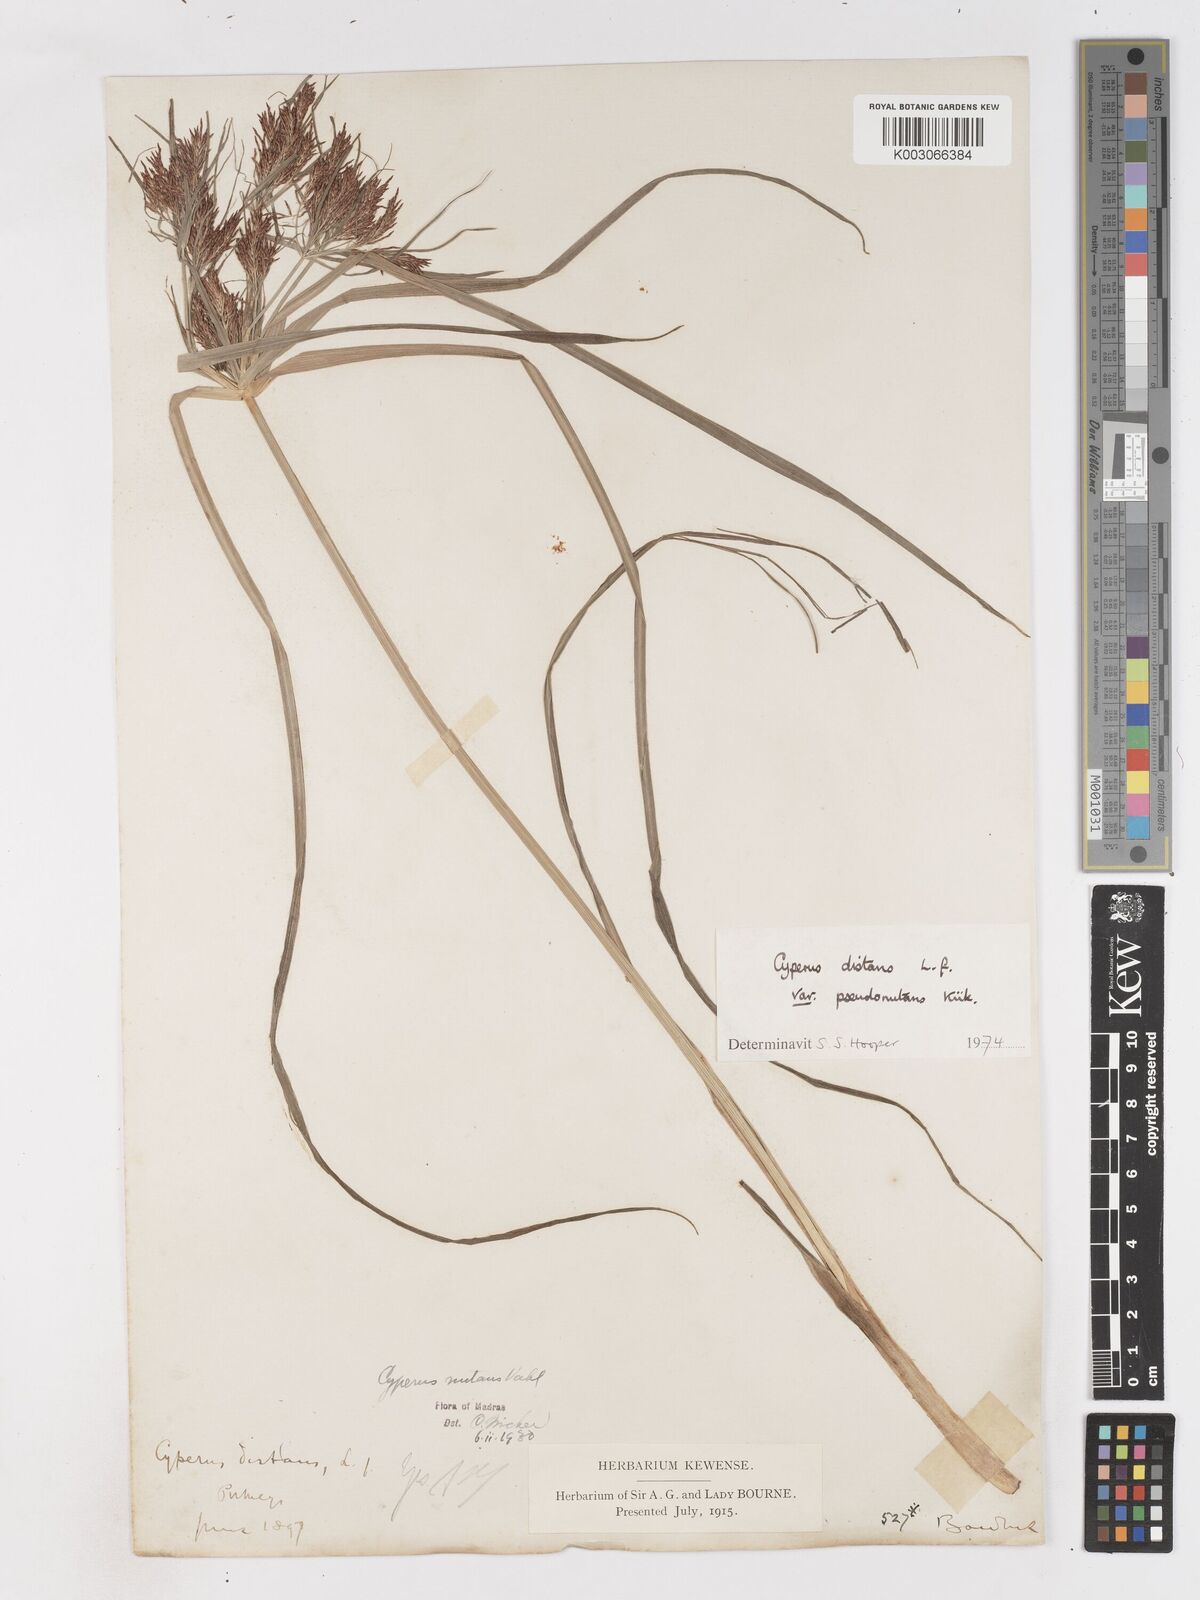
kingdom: Plantae
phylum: Tracheophyta
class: Liliopsida
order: Poales
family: Cyperaceae
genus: Cyperus
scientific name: Cyperus distans
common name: Slender cyperus
